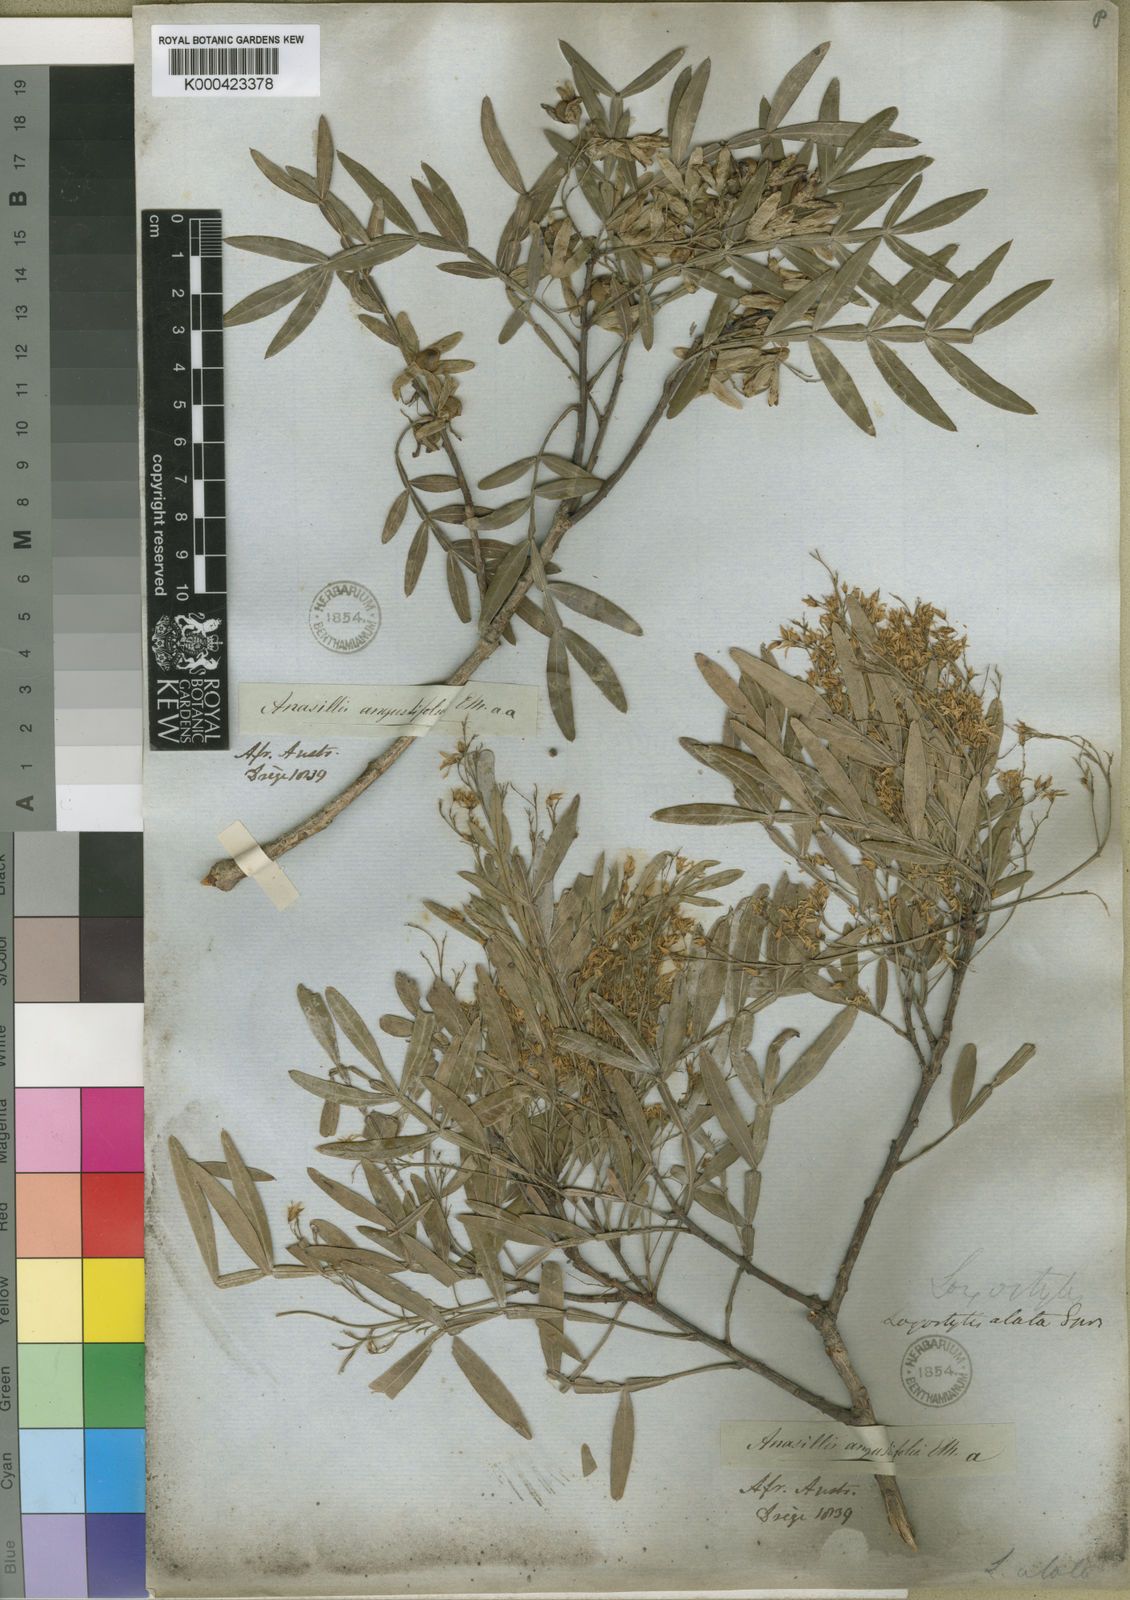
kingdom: Plantae
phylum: Tracheophyta
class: Magnoliopsida
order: Sapindales
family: Anacardiaceae
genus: Loxostylis
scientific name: Loxostylis alata
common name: Wild peppertree
